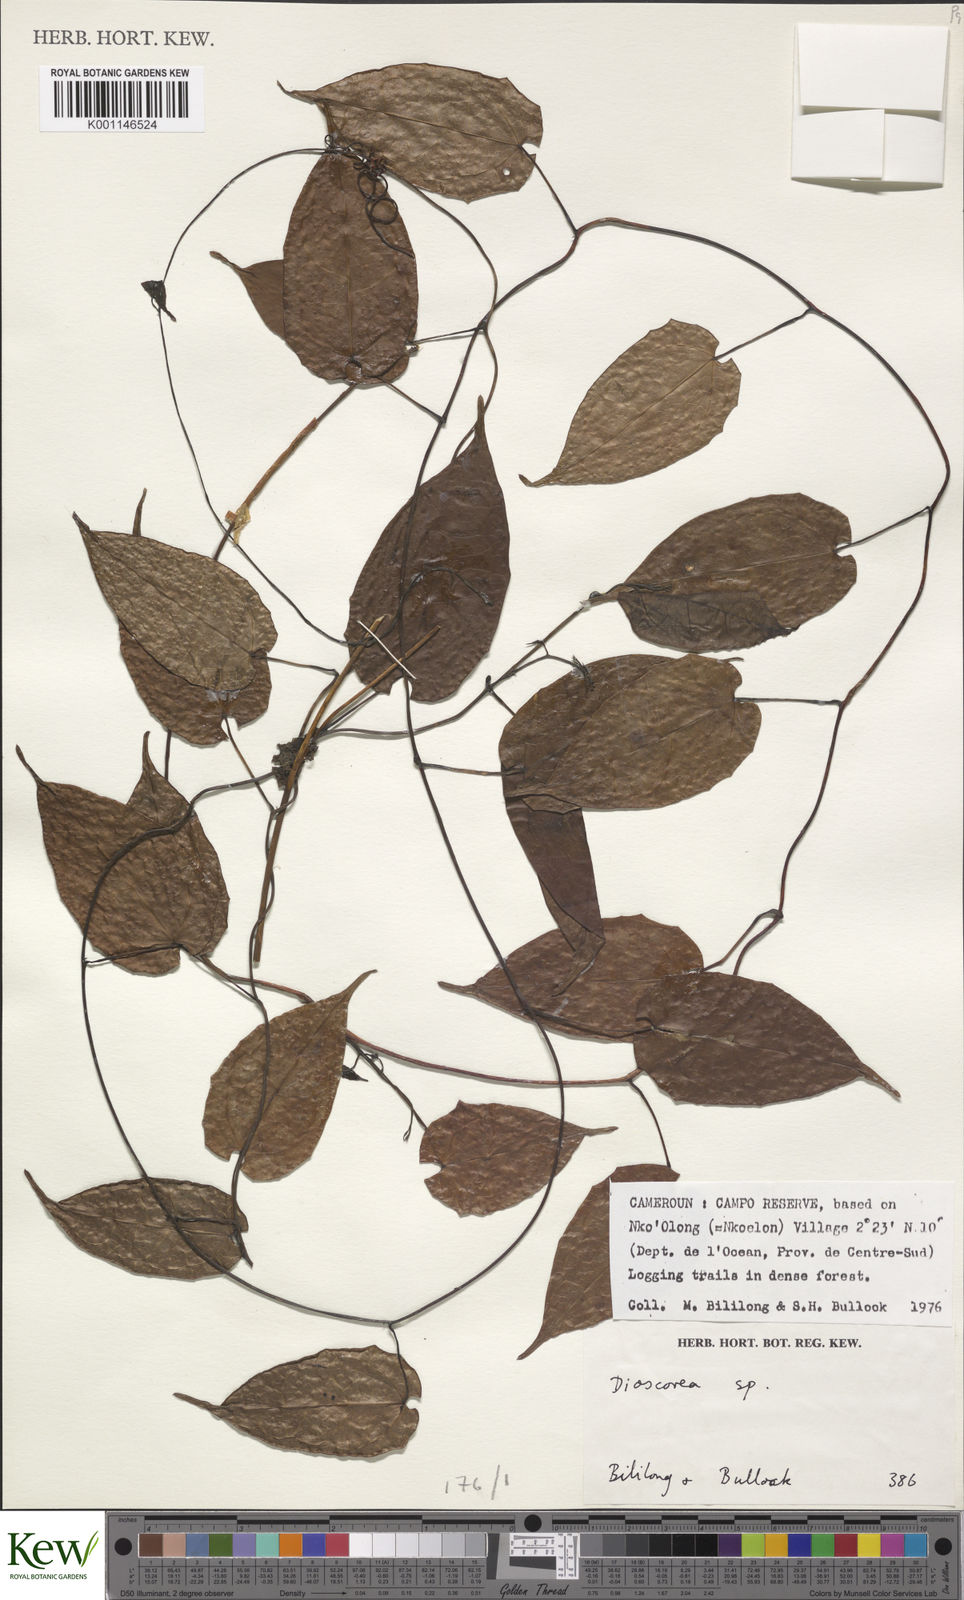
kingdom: Plantae
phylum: Tracheophyta
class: Liliopsida
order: Dioscoreales
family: Dioscoreaceae
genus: Dioscorea
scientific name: Dioscorea
